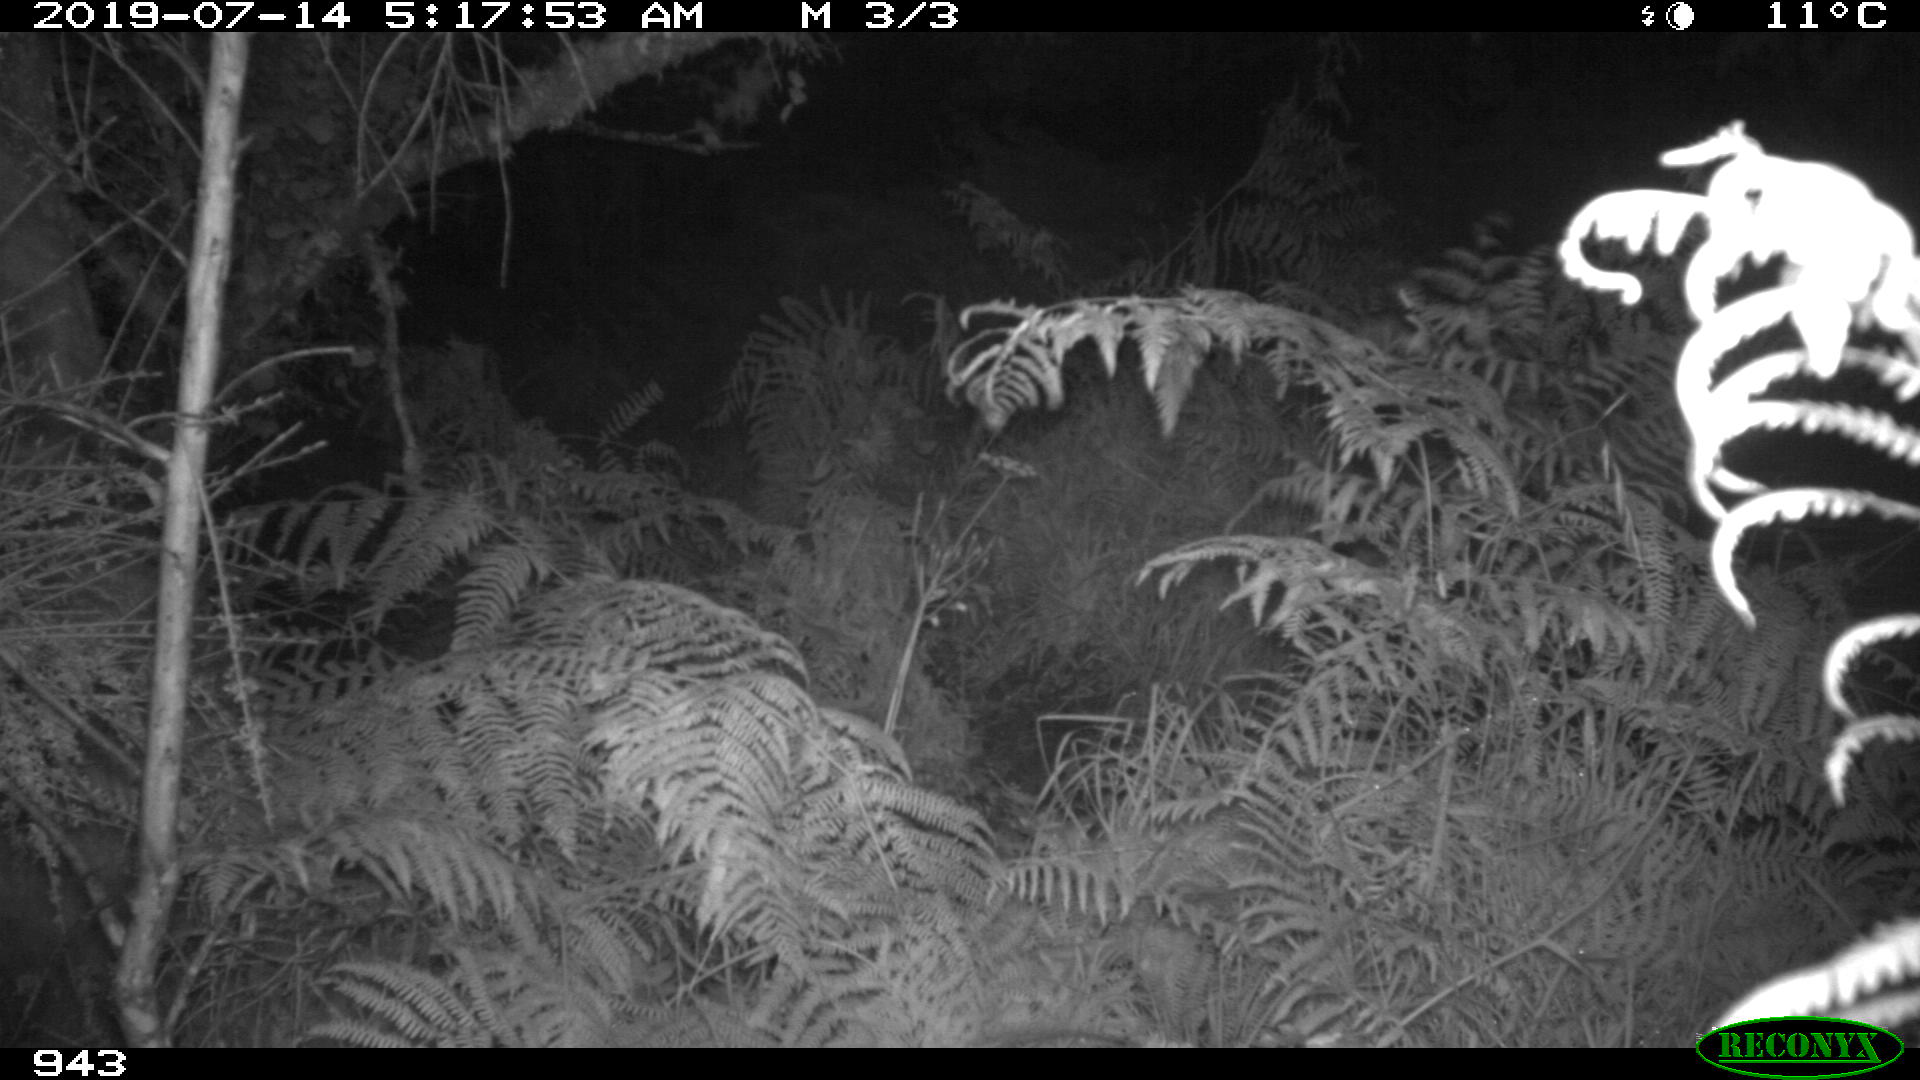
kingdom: Animalia
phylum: Chordata
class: Mammalia
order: Artiodactyla
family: Suidae
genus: Sus
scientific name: Sus scrofa
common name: Wild boar
